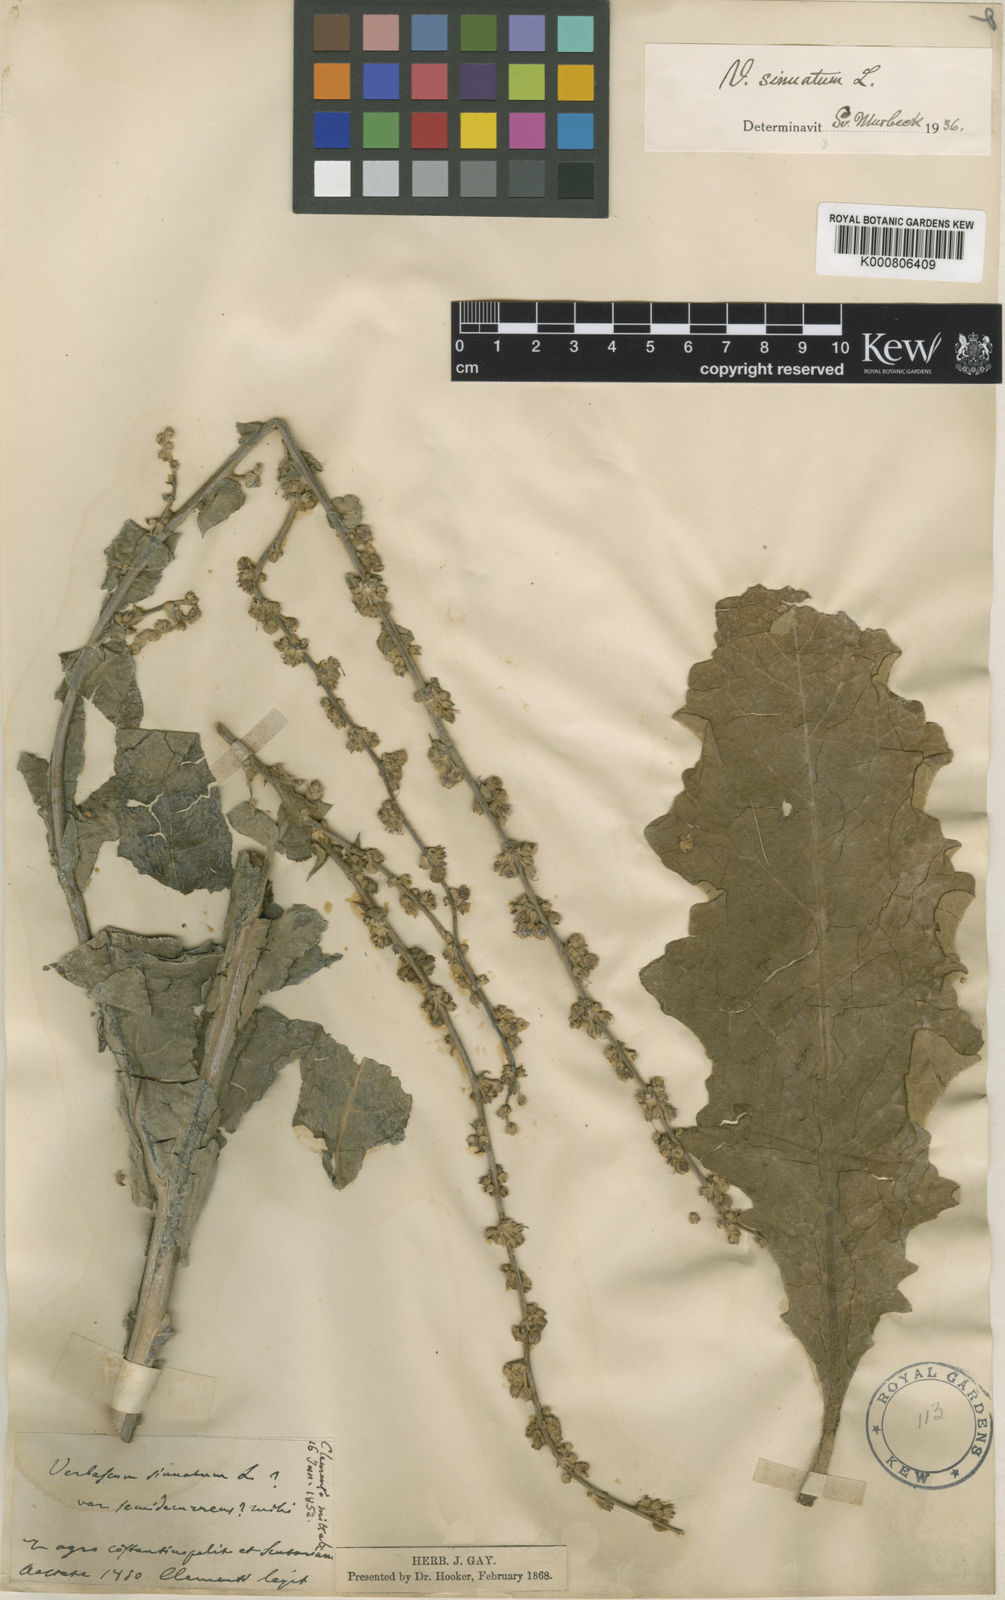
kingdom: Plantae
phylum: Tracheophyta
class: Magnoliopsida
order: Lamiales
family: Scrophulariaceae
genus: Verbascum
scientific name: Verbascum sinuatum
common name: Wavyleaf mullein
